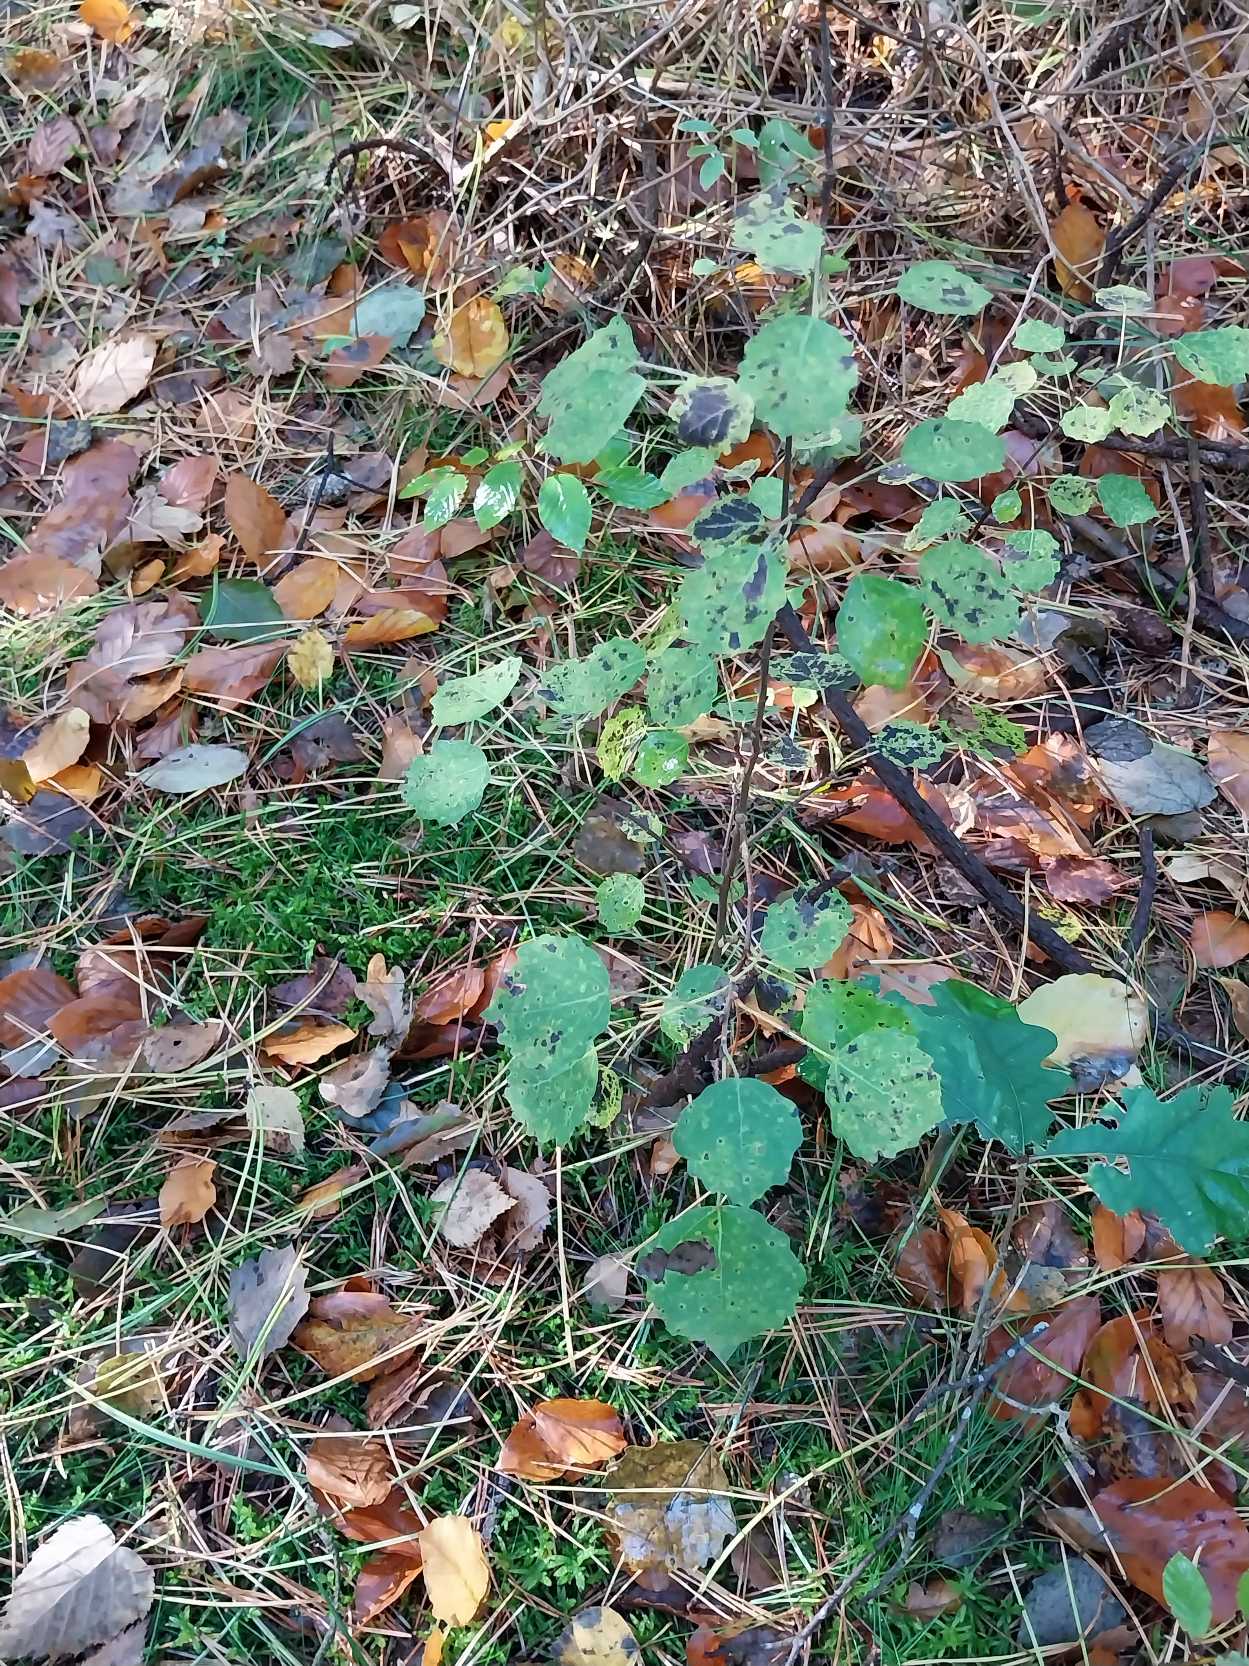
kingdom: Plantae
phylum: Tracheophyta
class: Magnoliopsida
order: Malpighiales
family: Salicaceae
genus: Populus
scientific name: Populus tremula
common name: Bævreasp
